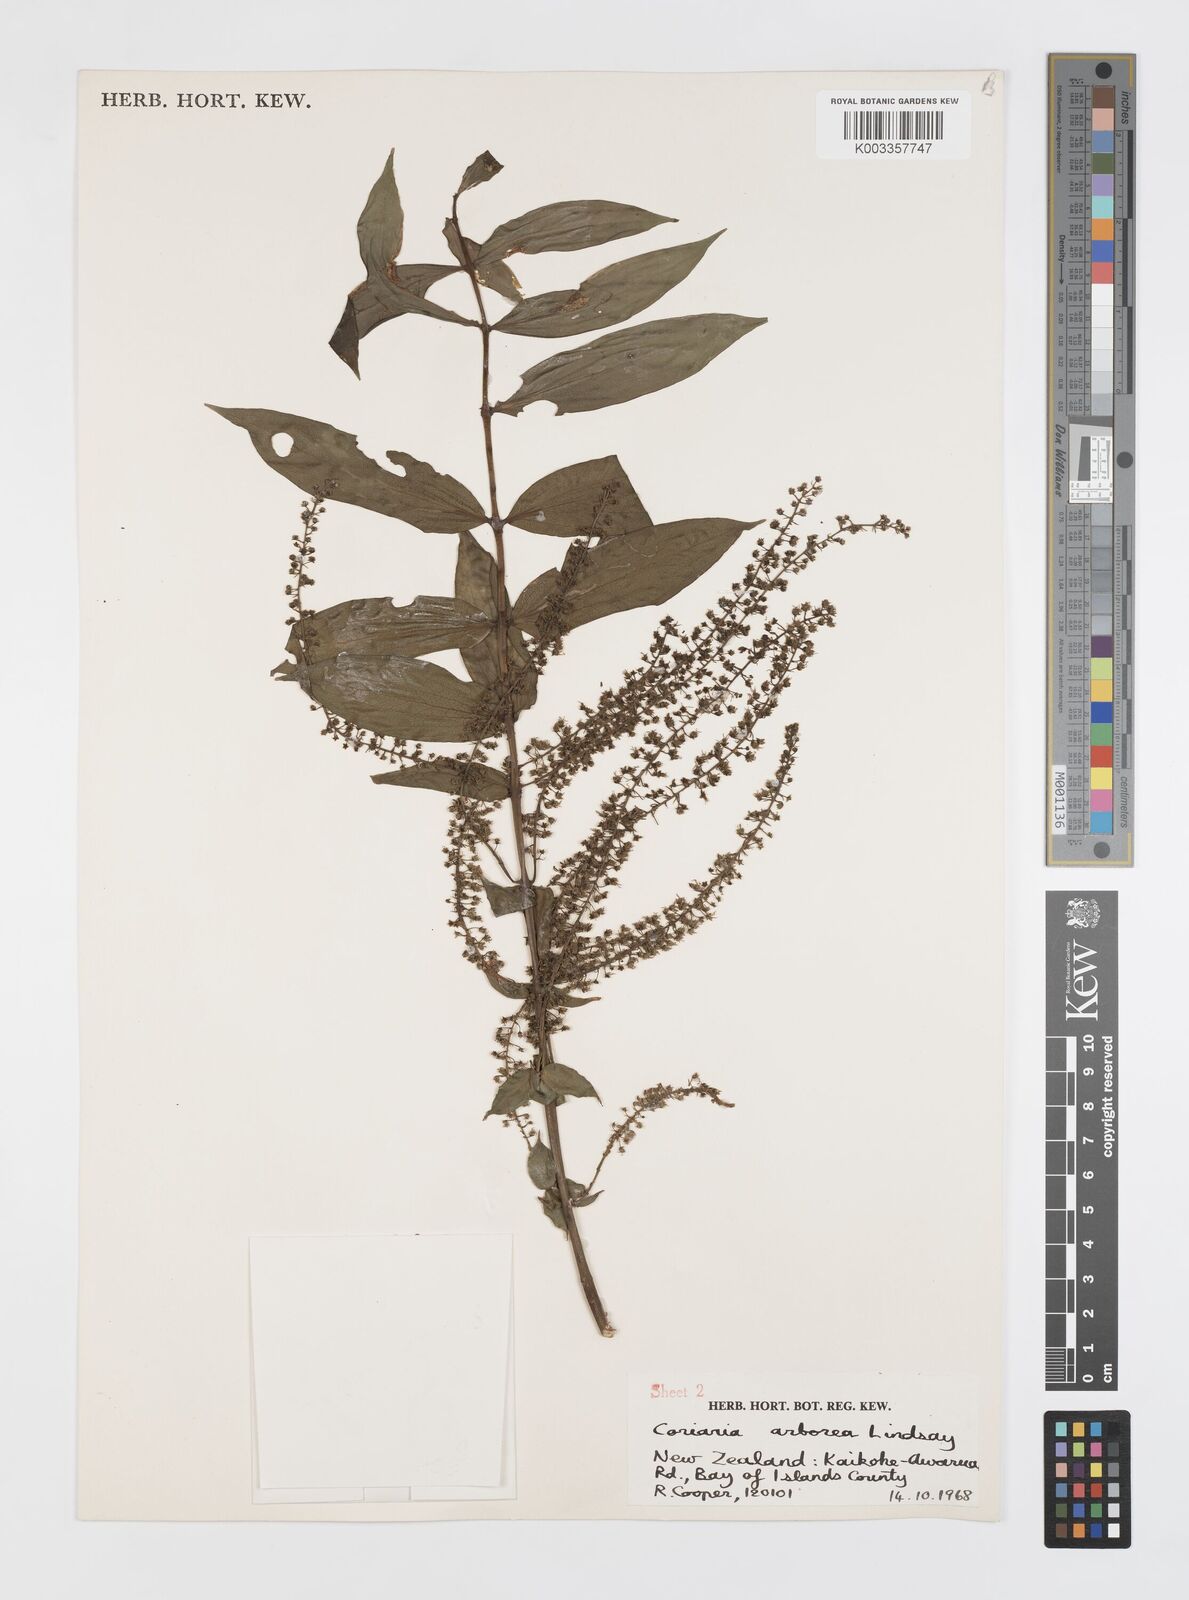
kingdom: Plantae
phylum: Tracheophyta
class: Magnoliopsida
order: Cucurbitales
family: Coriariaceae
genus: Coriaria
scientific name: Coriaria arborea
